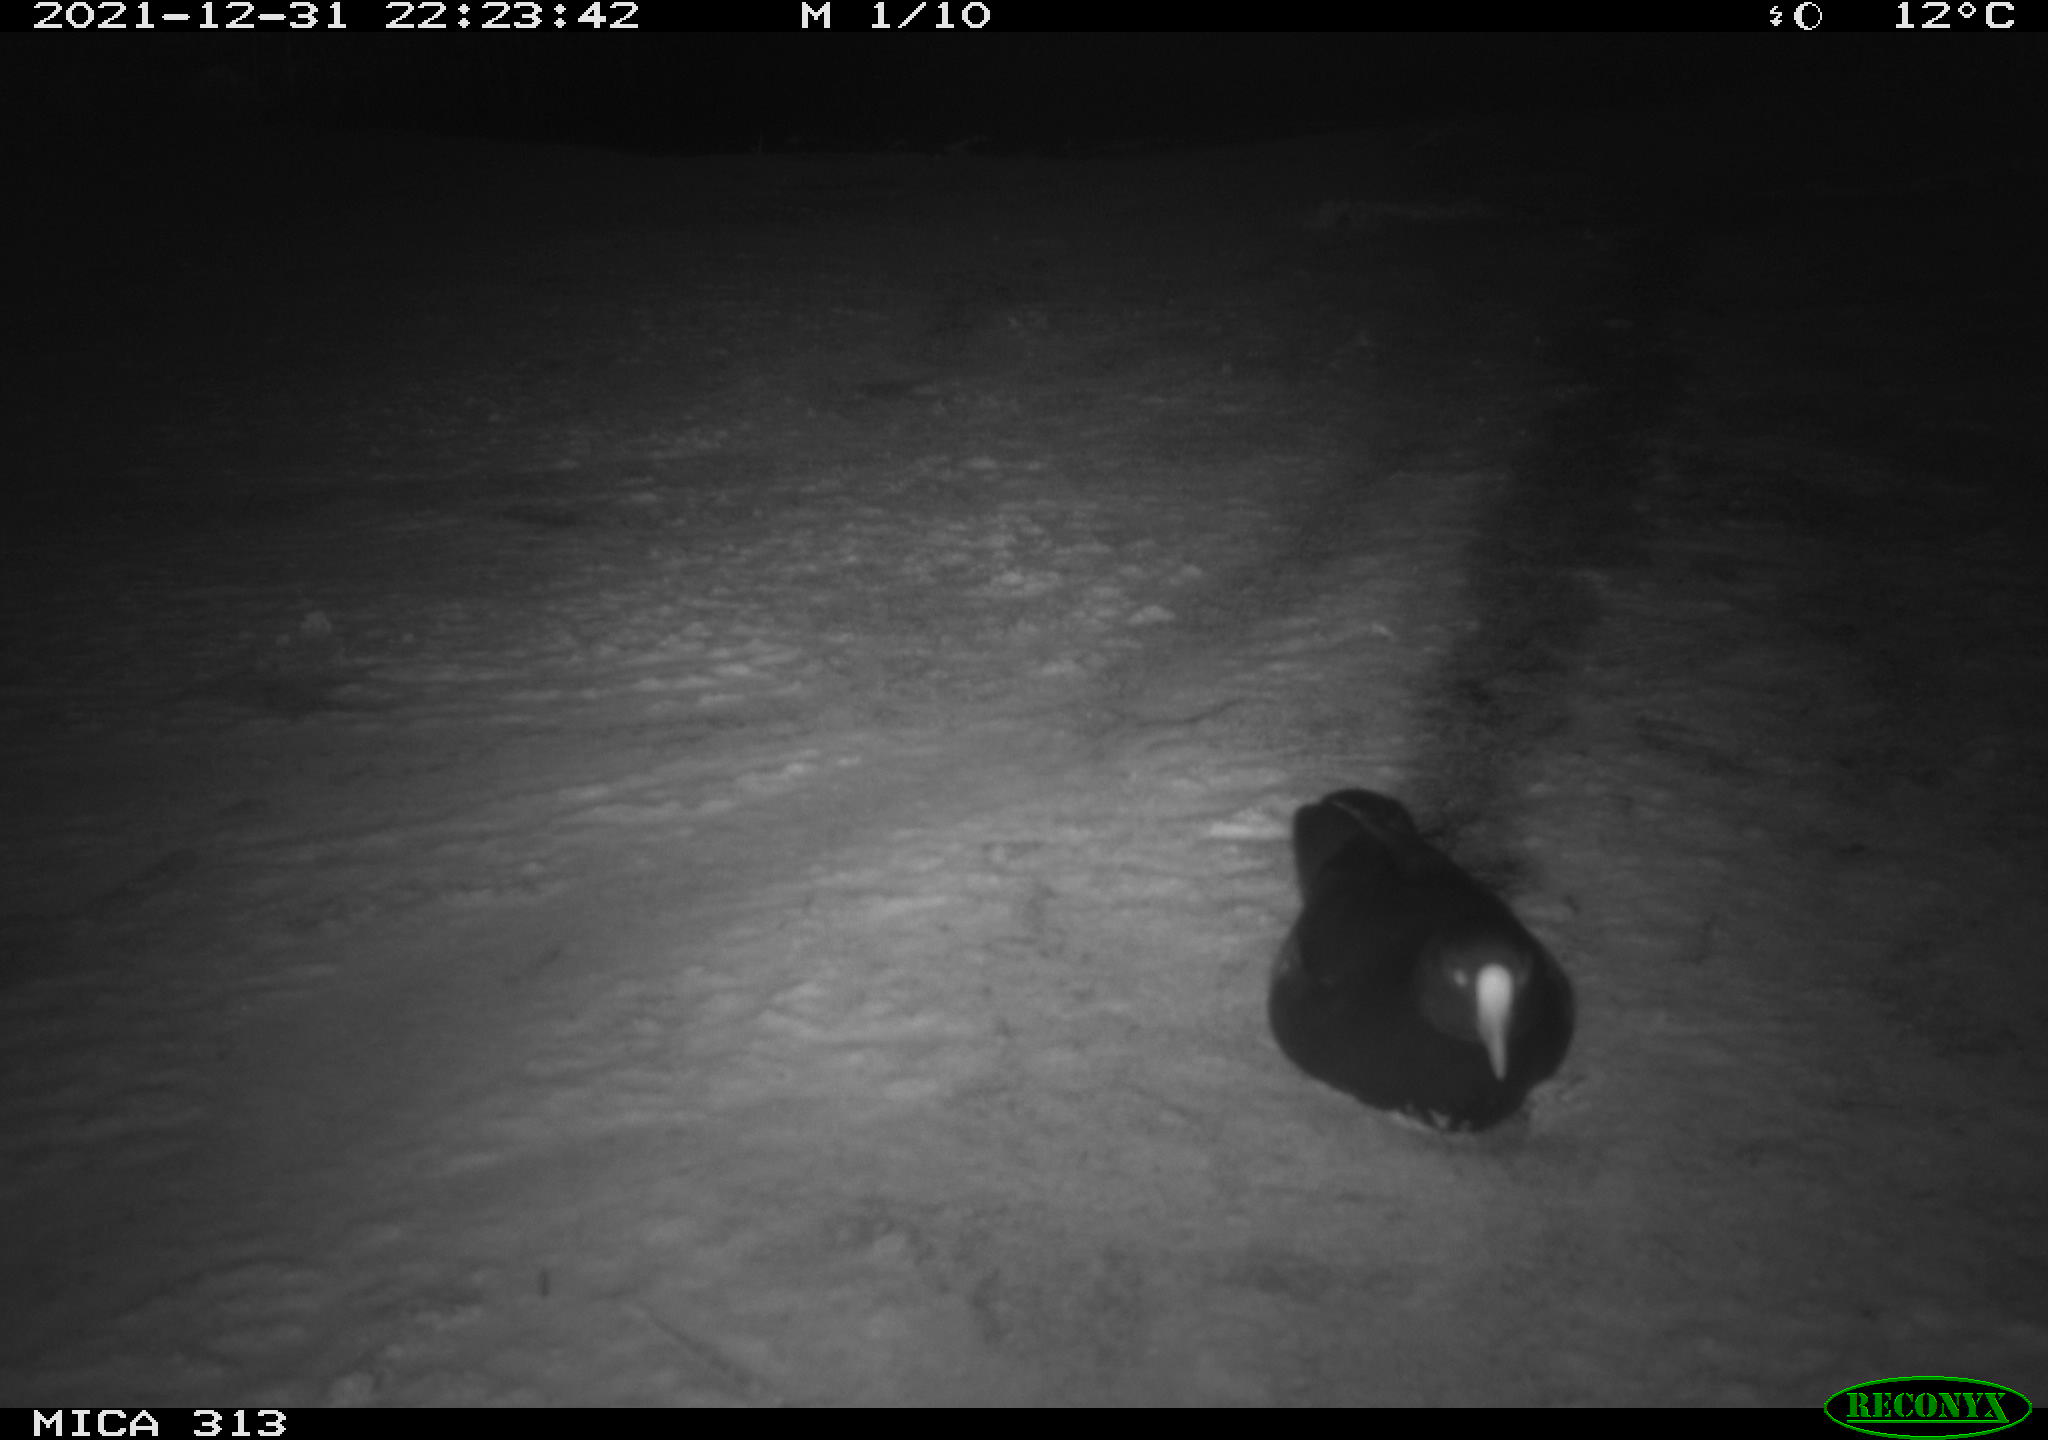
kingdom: Animalia
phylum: Chordata
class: Aves
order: Gruiformes
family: Rallidae
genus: Fulica
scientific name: Fulica atra
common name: Eurasian coot
